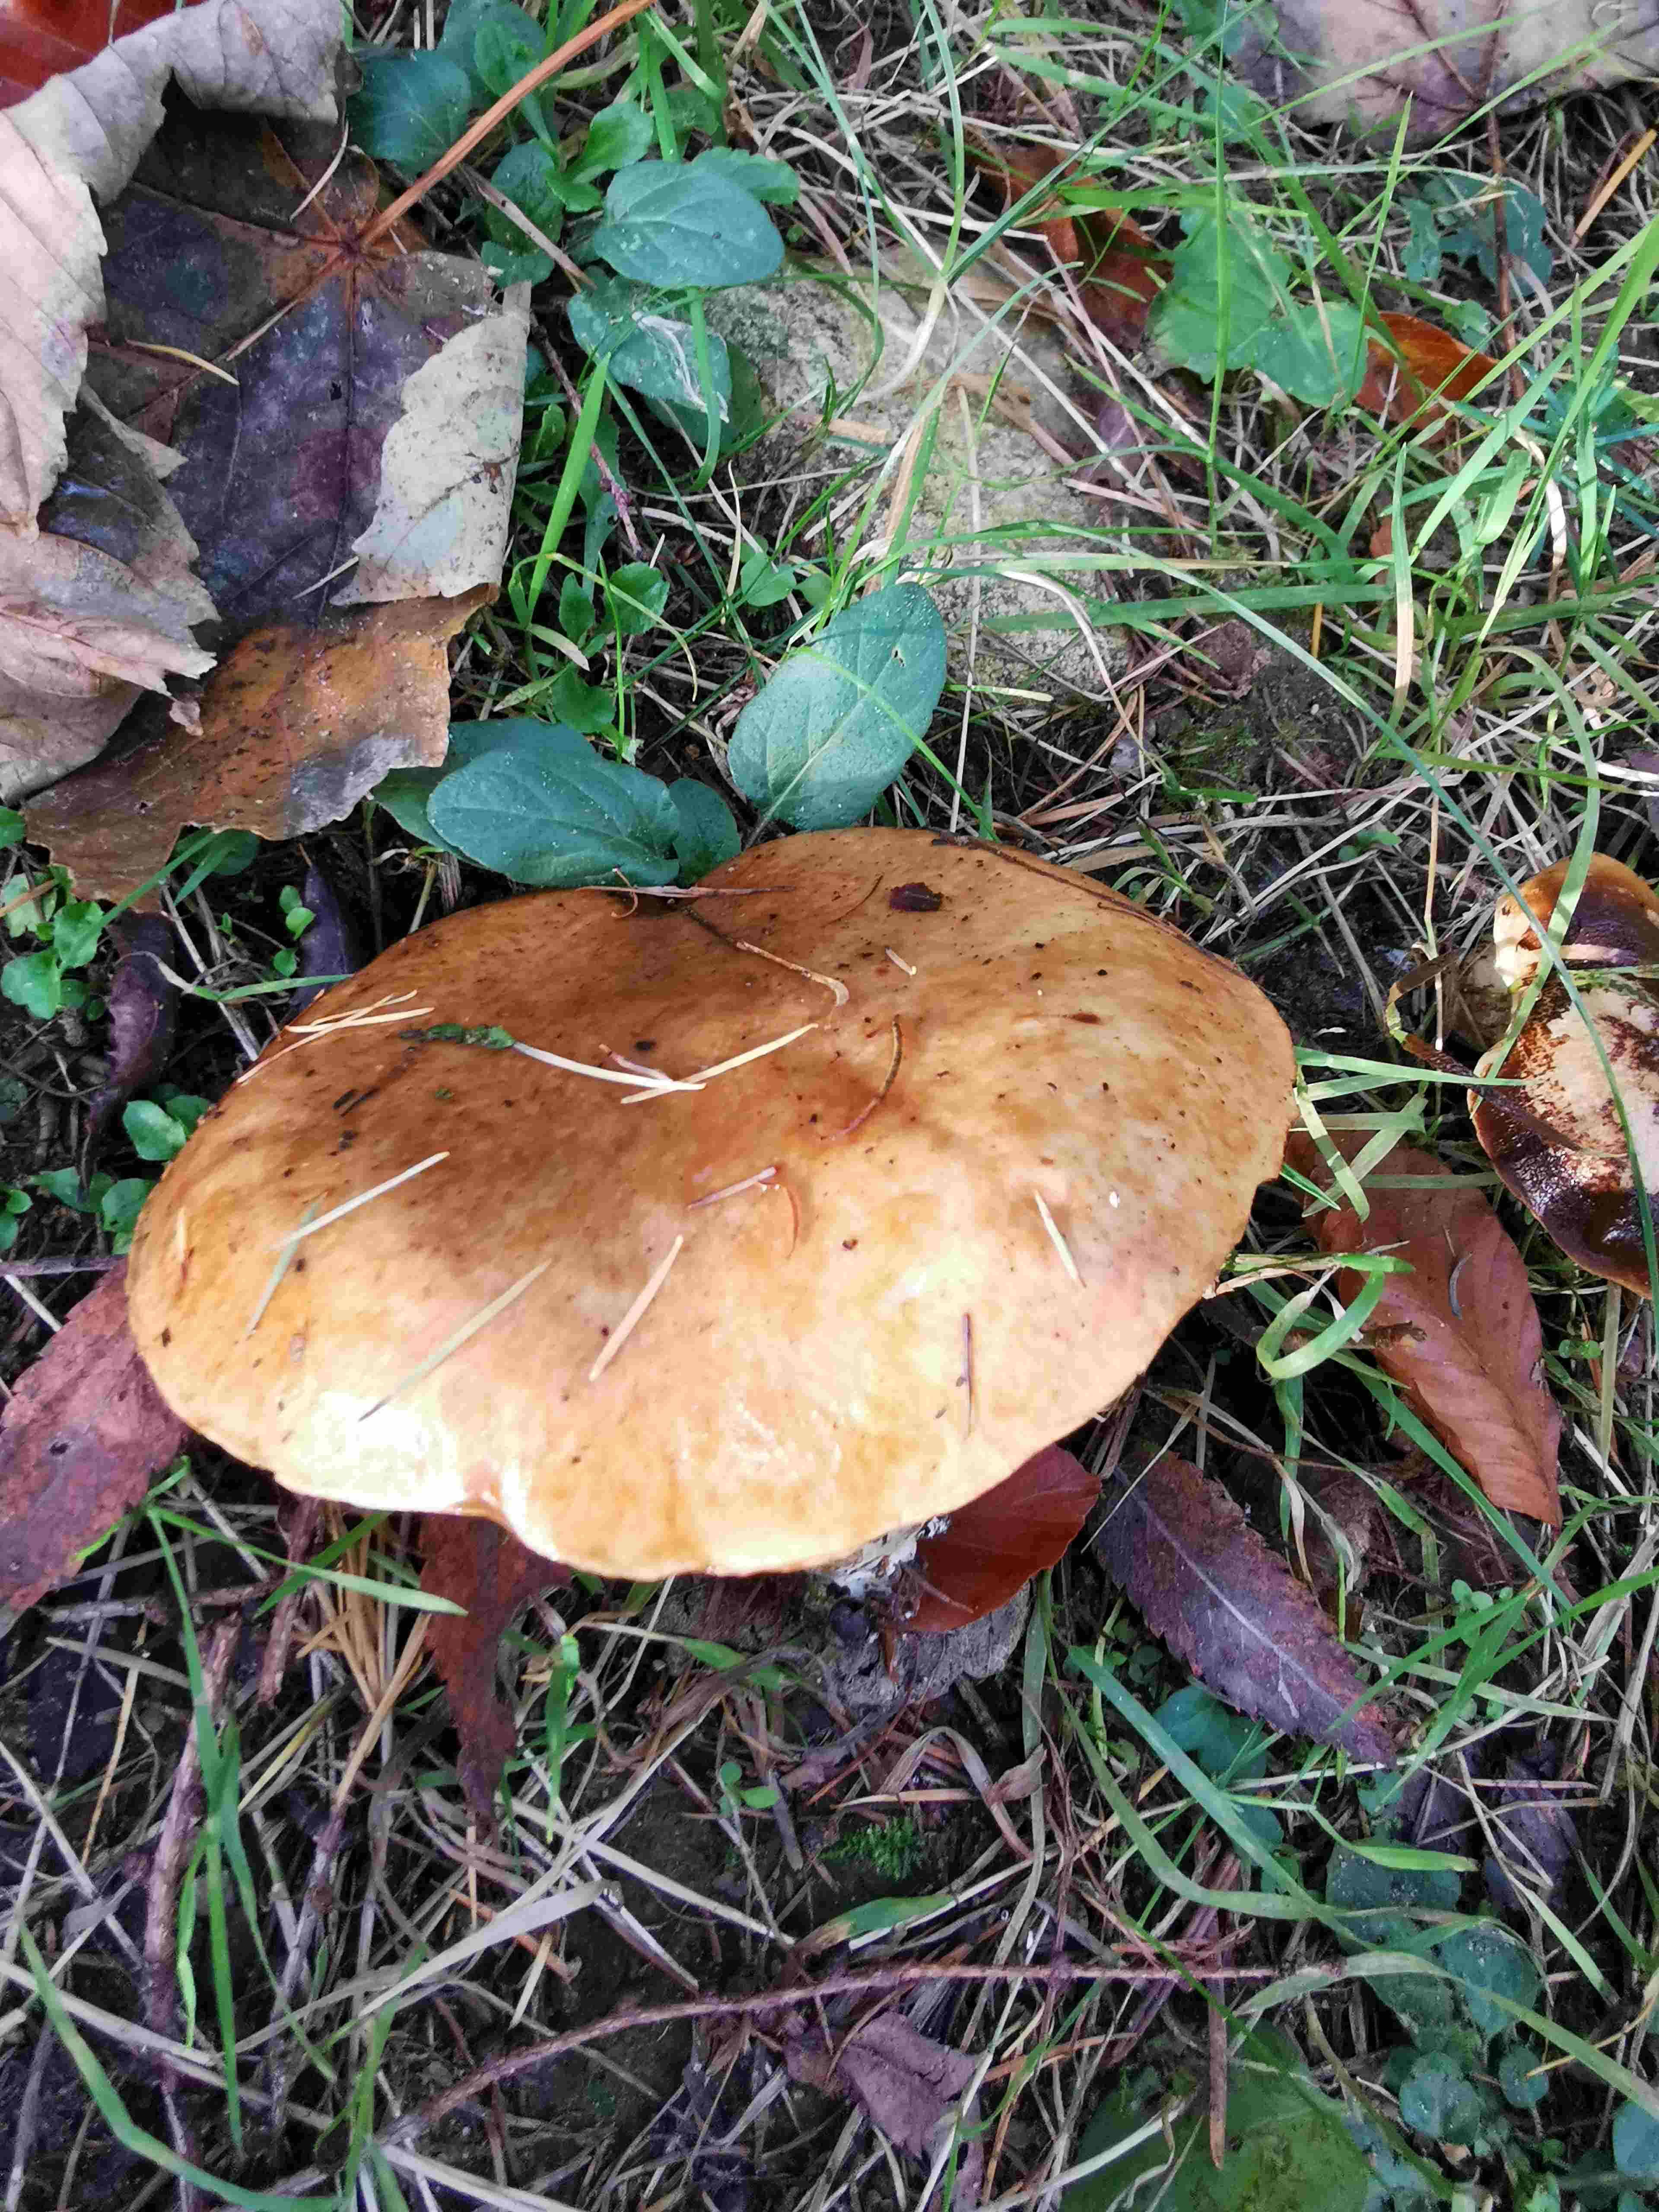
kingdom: Fungi
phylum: Basidiomycota
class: Agaricomycetes
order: Boletales
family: Suillaceae
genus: Suillus
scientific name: Suillus grevillei
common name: lærke-slimrørhat
